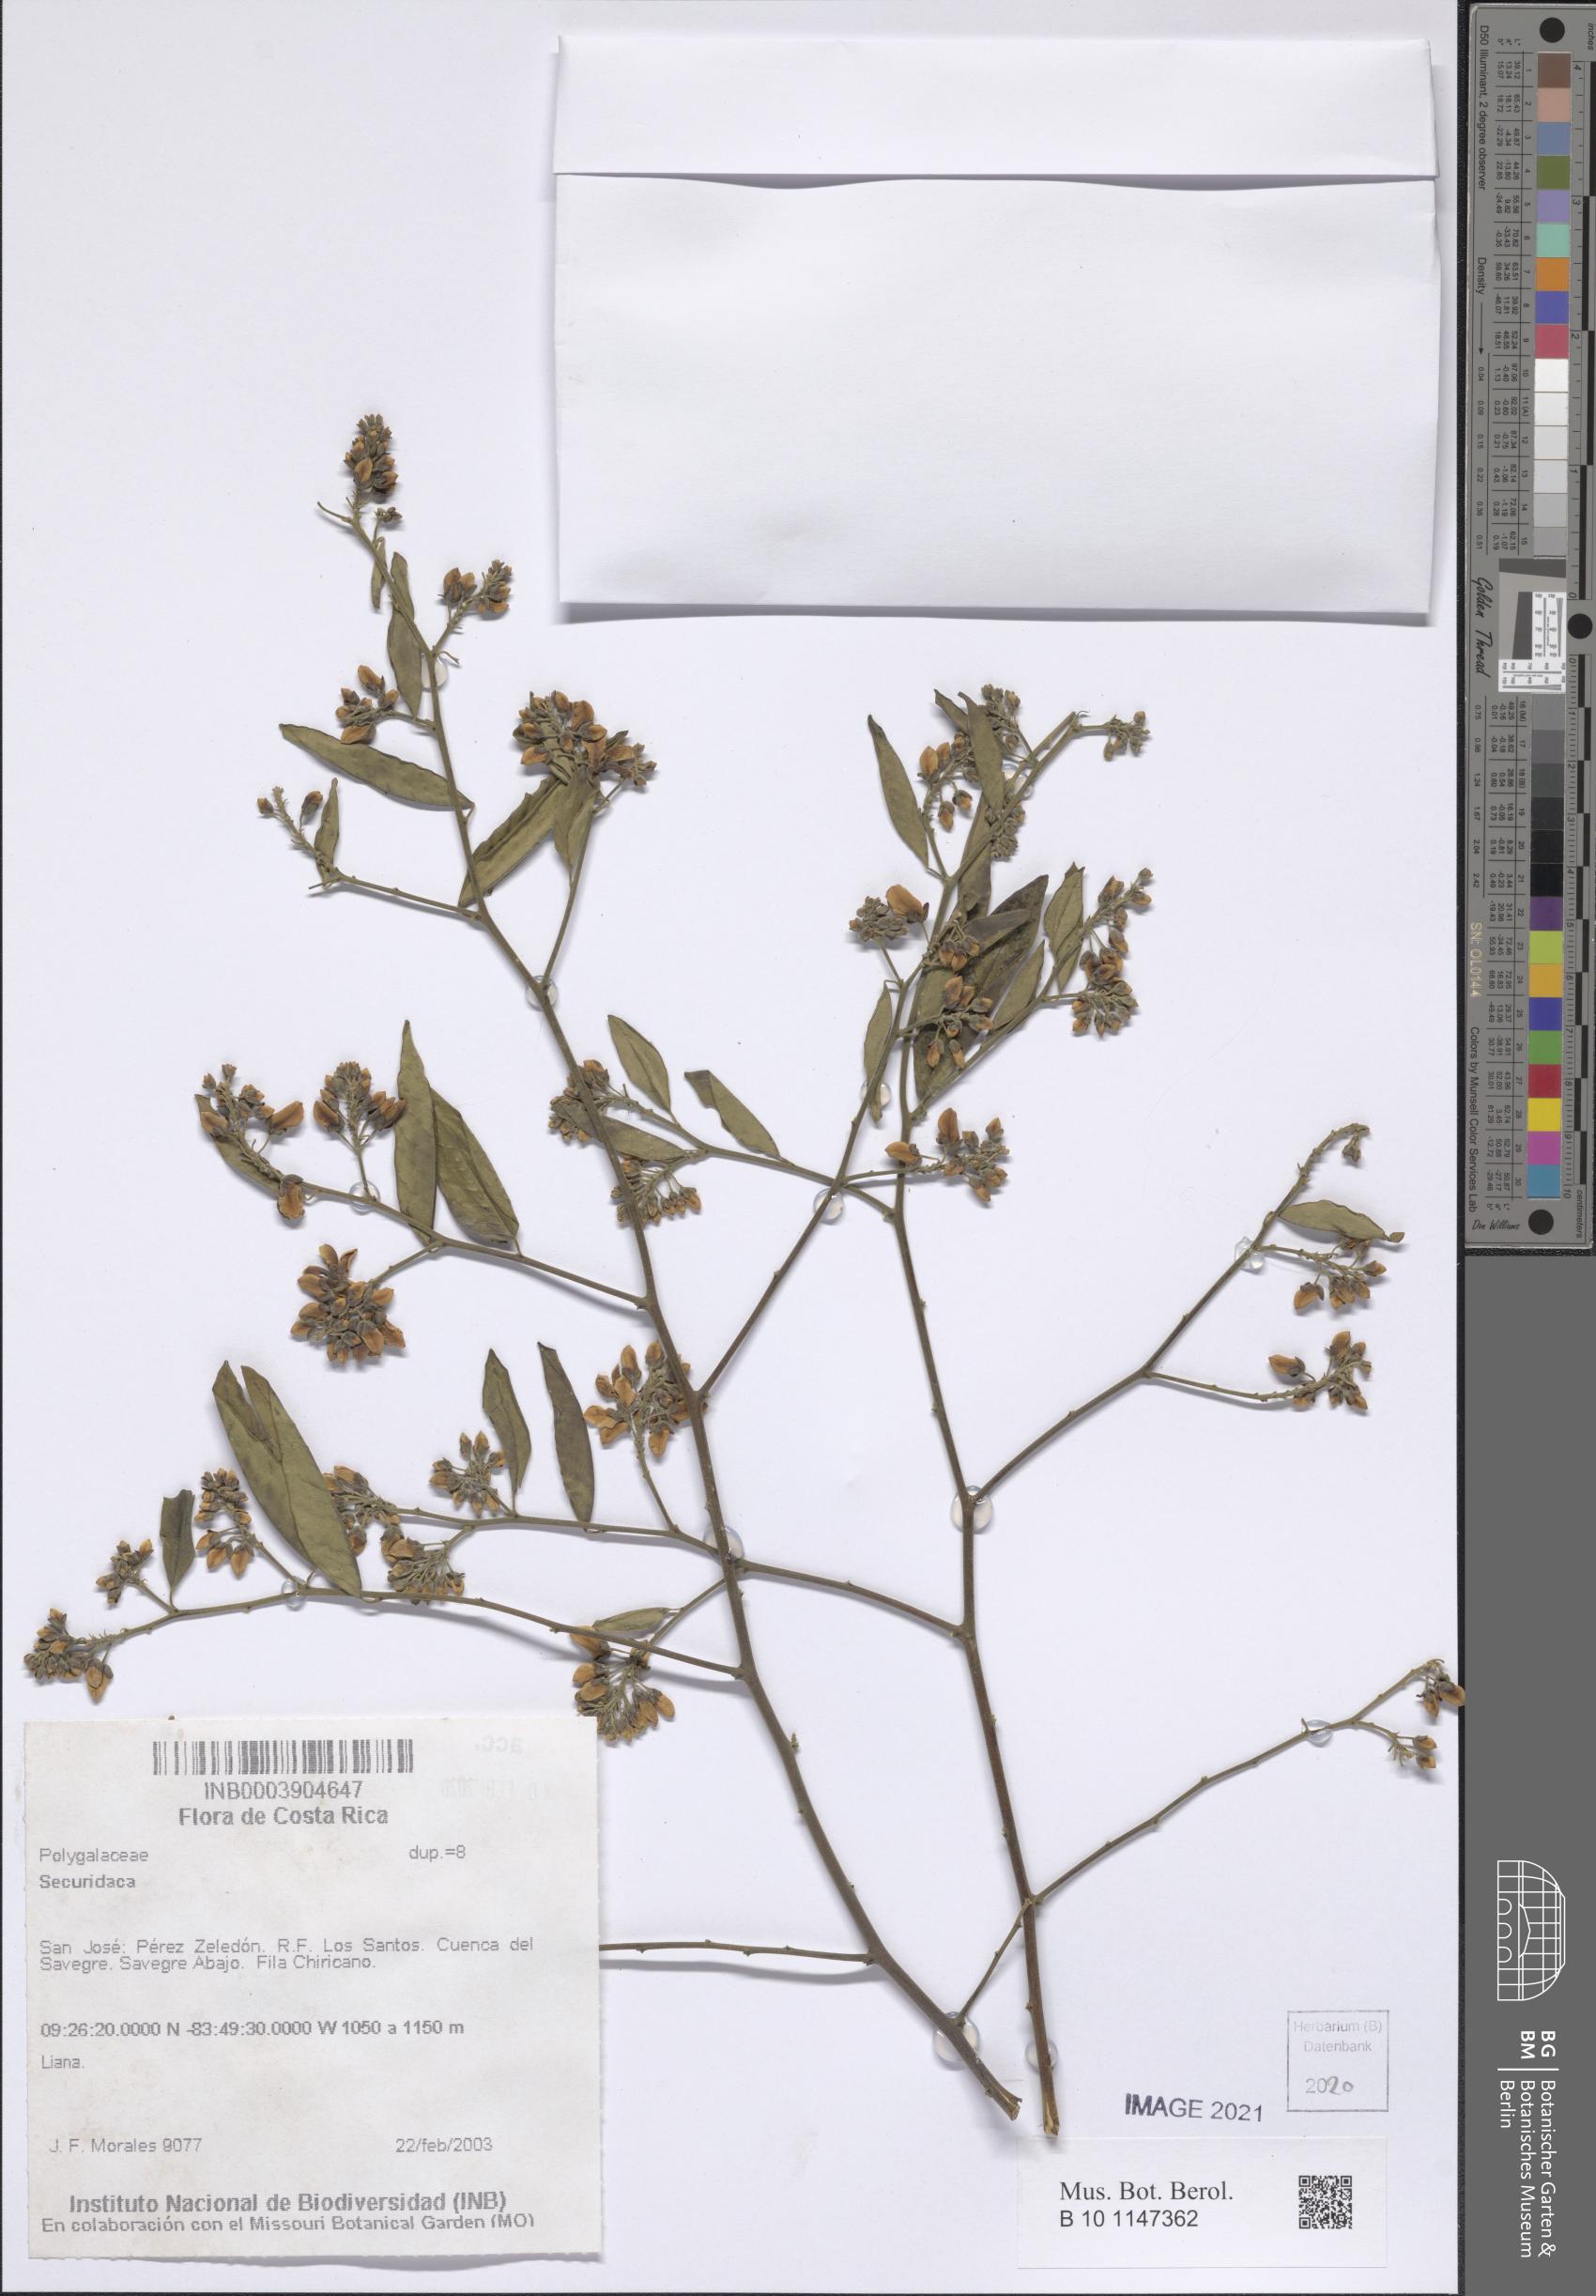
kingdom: Plantae
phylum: Tracheophyta
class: Magnoliopsida
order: Fabales
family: Polygalaceae
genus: Securidaca
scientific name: Securidaca
